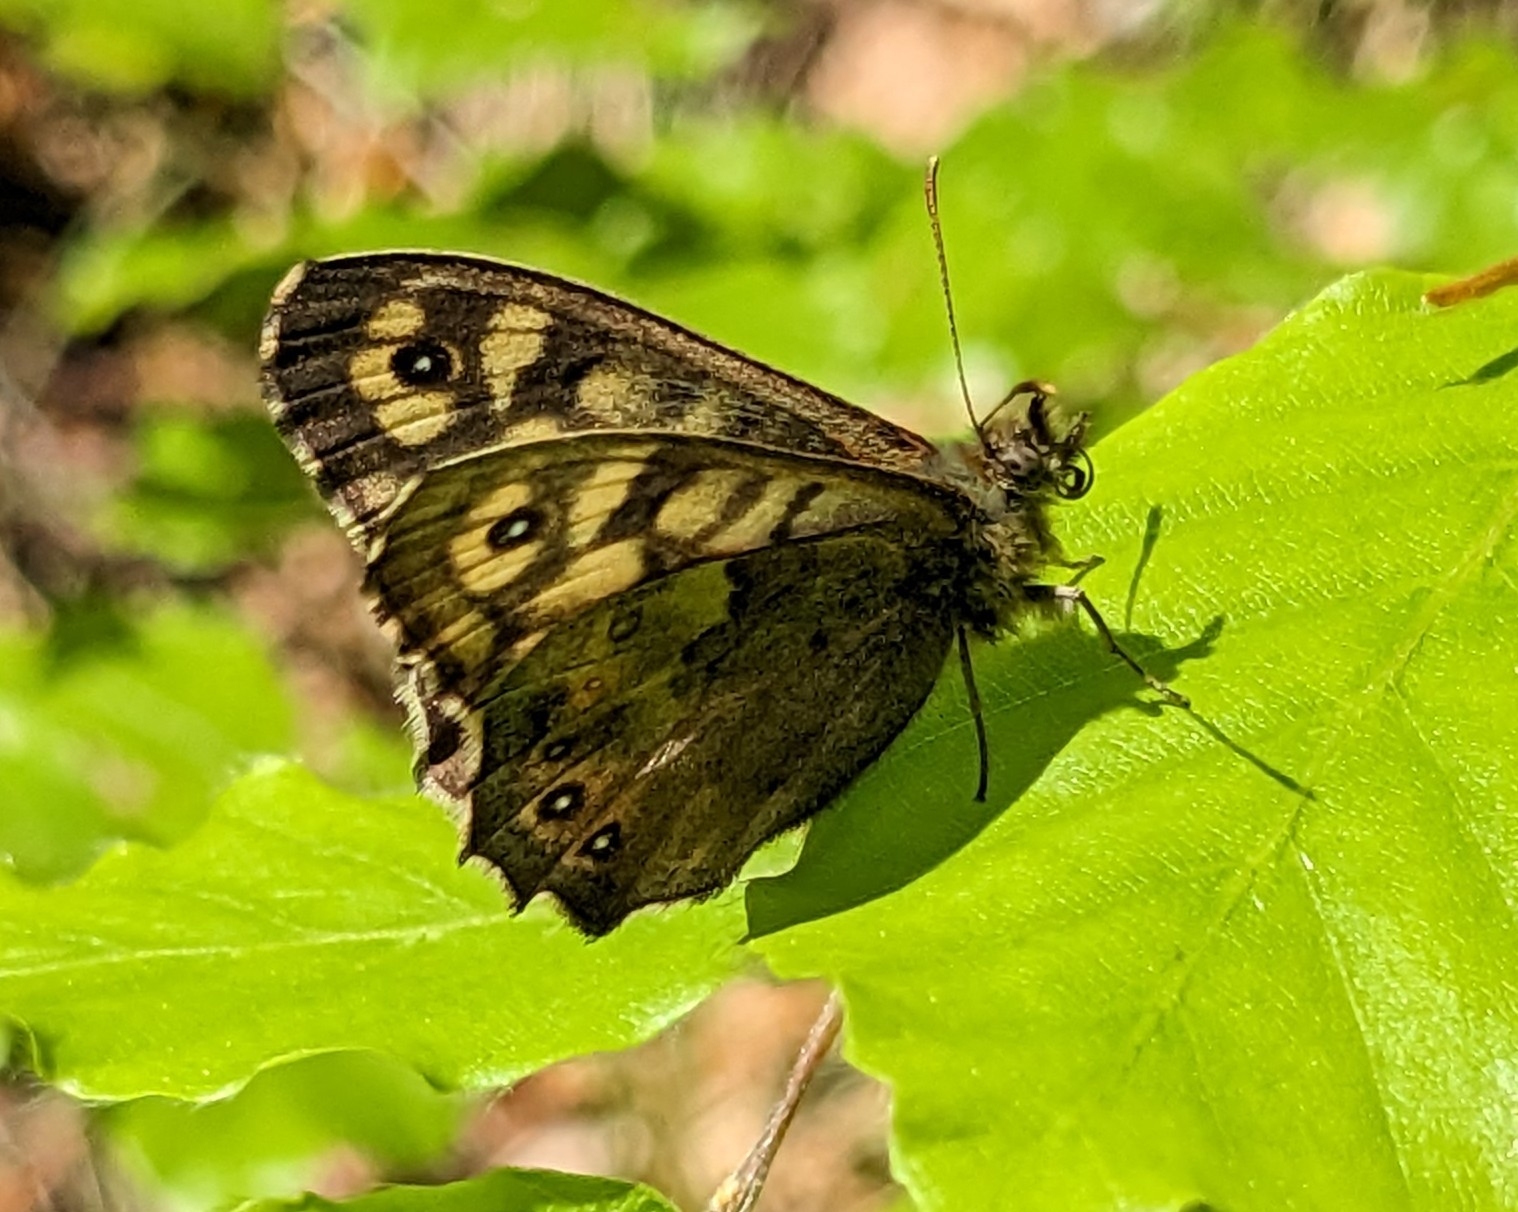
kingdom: Animalia
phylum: Arthropoda
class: Insecta
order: Lepidoptera
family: Nymphalidae
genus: Pararge
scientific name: Pararge aegeria
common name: Skovrandøje
